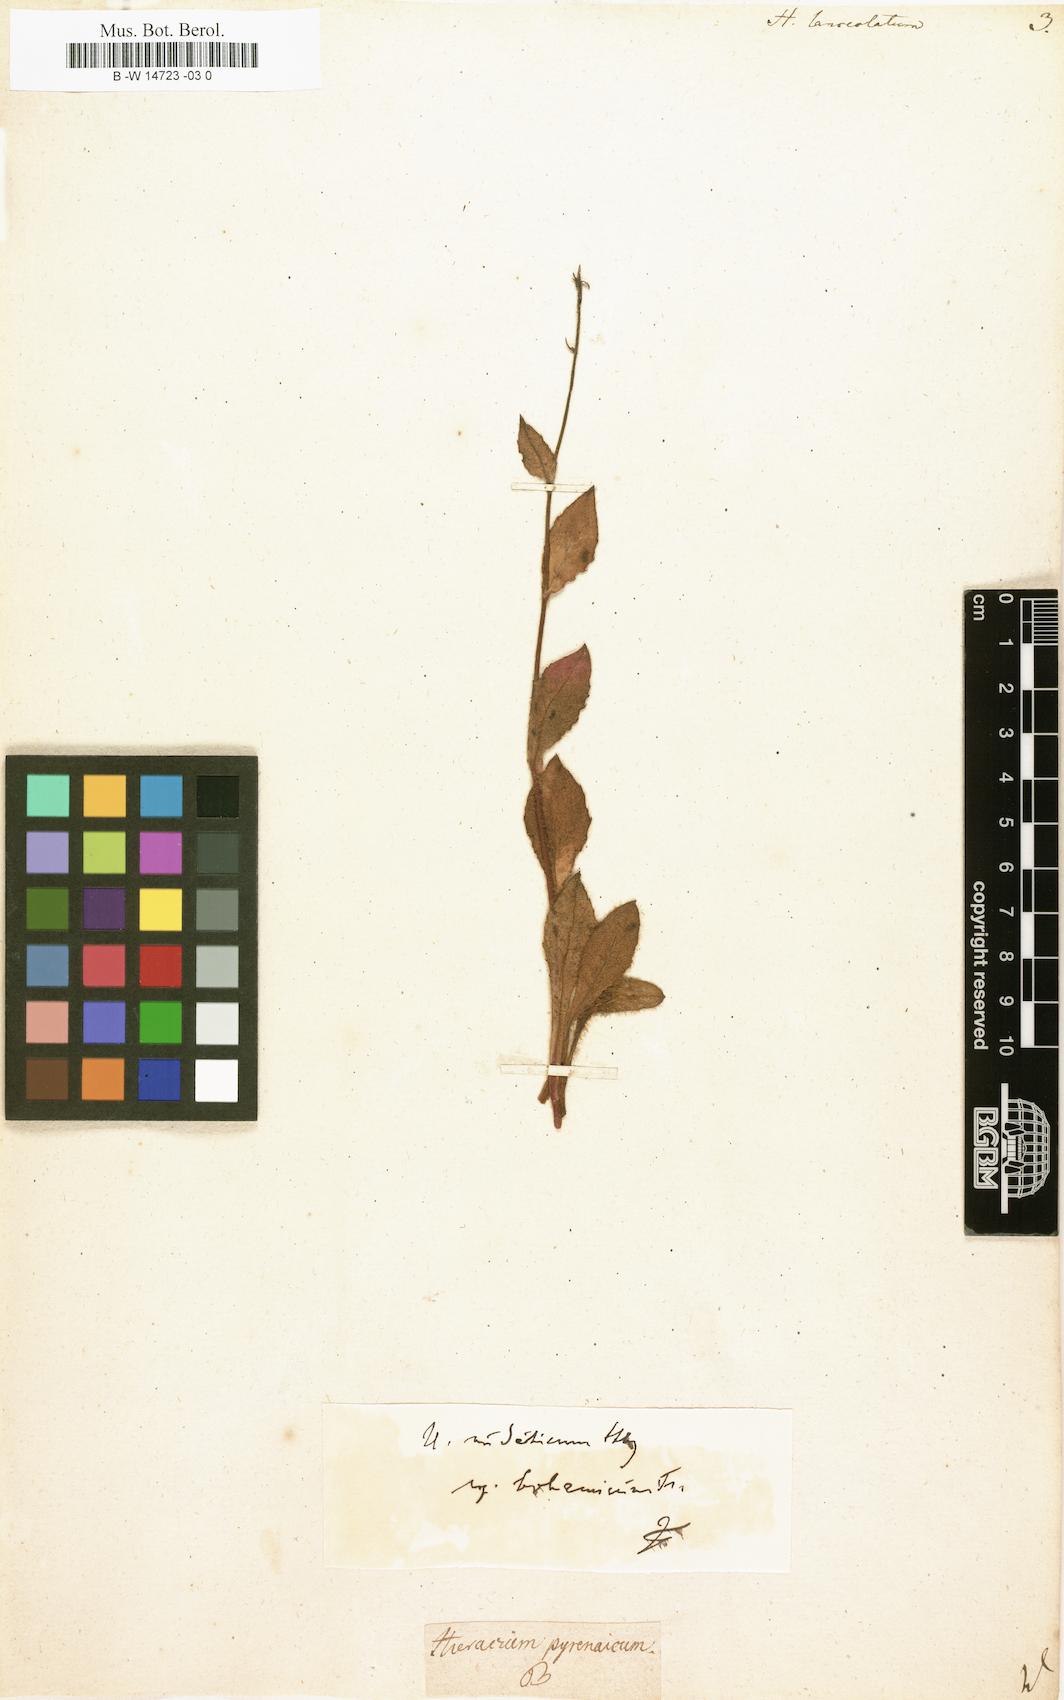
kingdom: Plantae
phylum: Tracheophyta
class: Magnoliopsida
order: Asterales
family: Asteraceae
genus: Hieracium
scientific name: Hieracium lanceolatum
